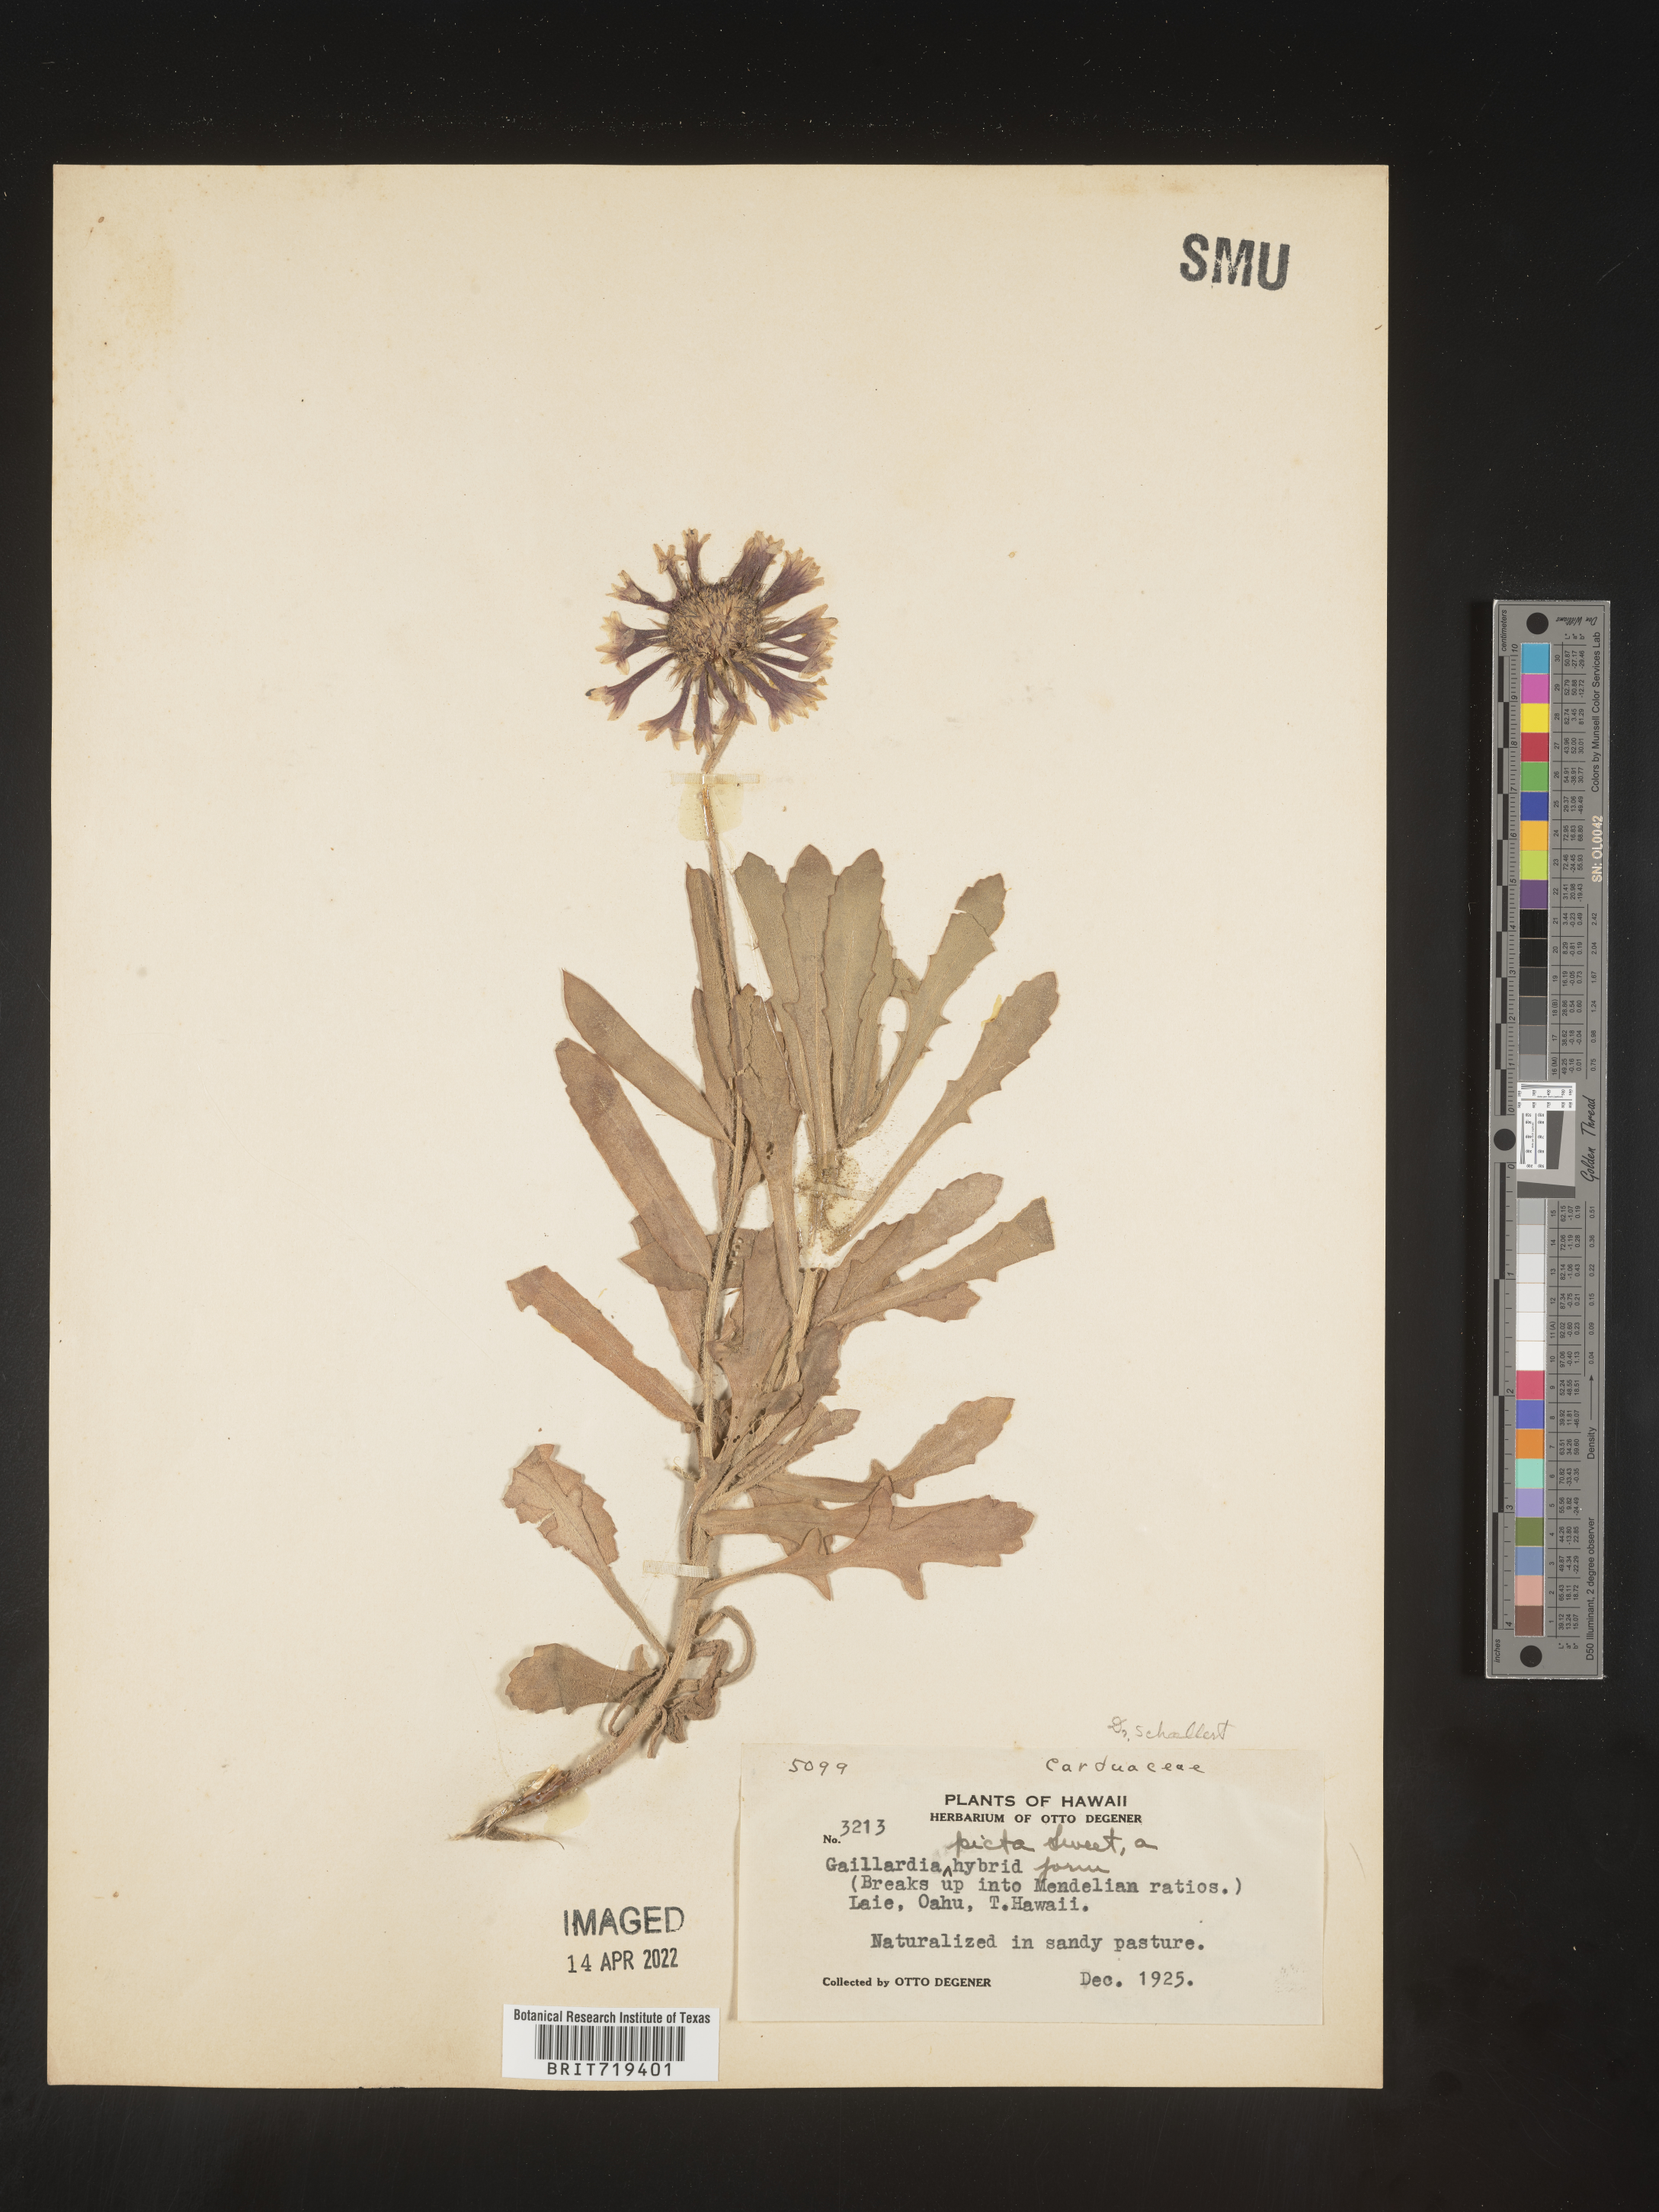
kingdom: Plantae
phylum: Tracheophyta
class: Magnoliopsida
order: Asterales
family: Asteraceae
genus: Gaillardia
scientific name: Gaillardia
